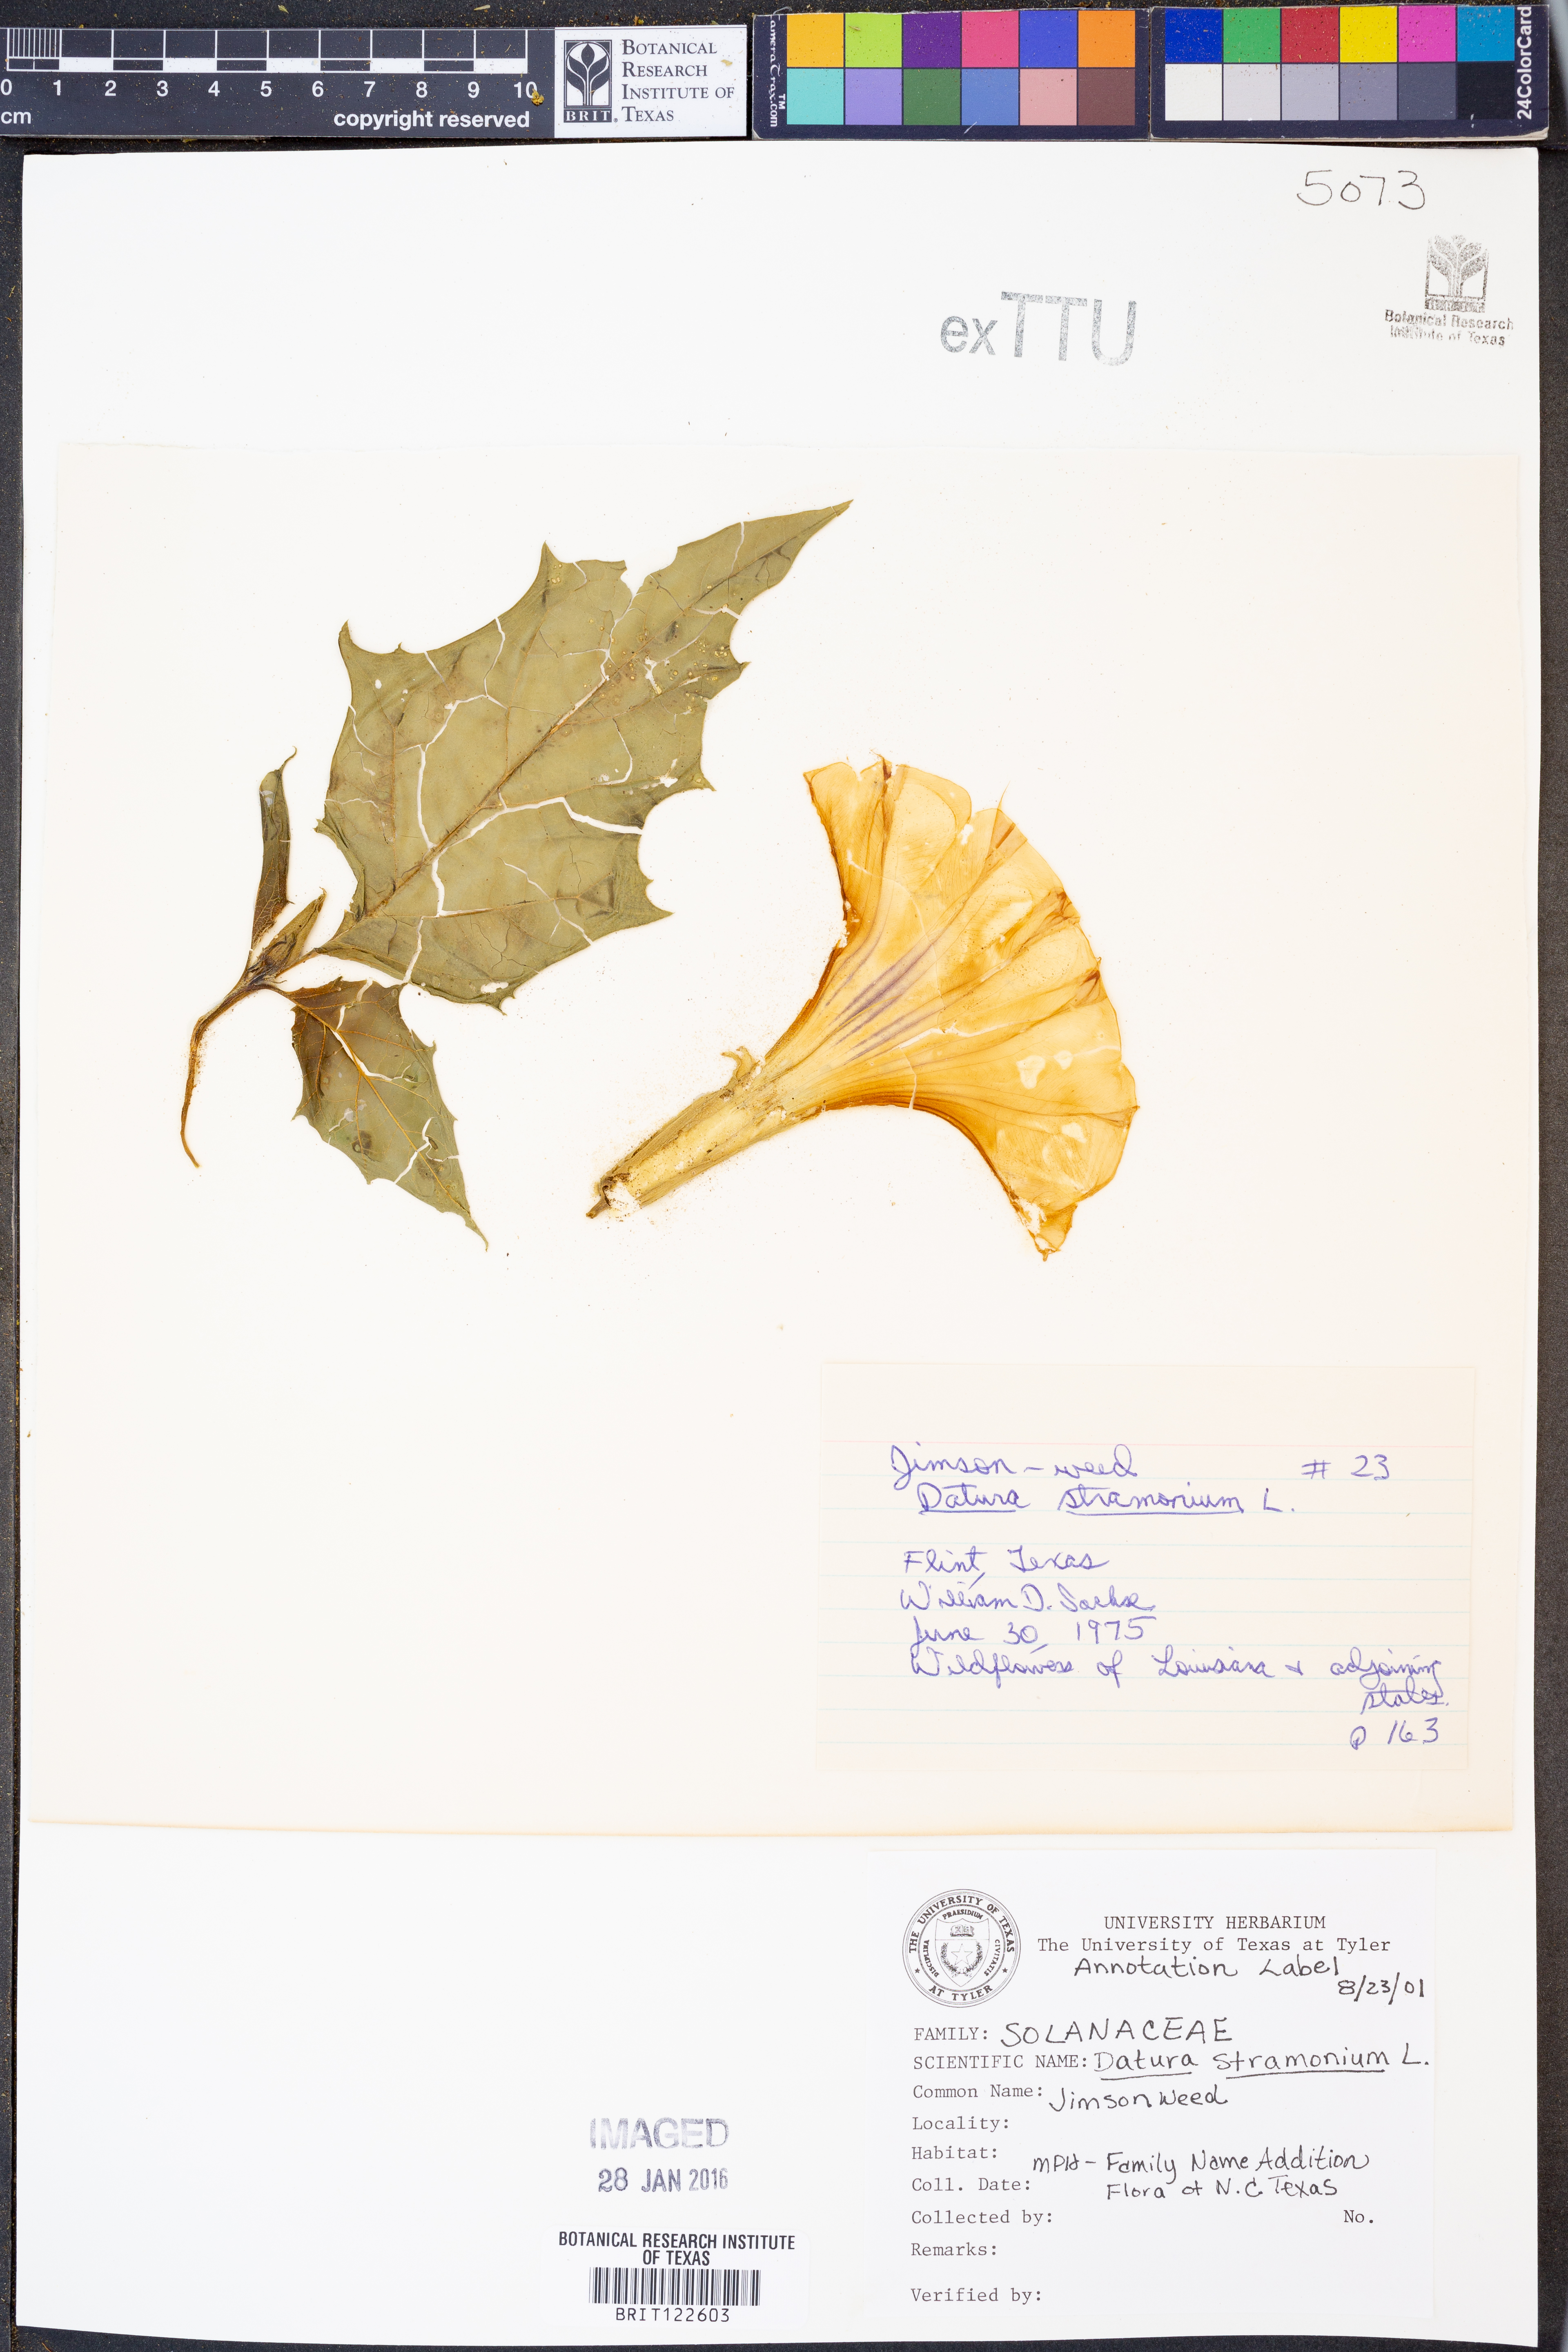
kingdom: Plantae
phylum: Tracheophyta
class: Magnoliopsida
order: Solanales
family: Solanaceae
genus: Datura
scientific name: Datura stramonium
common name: Thorn-apple
